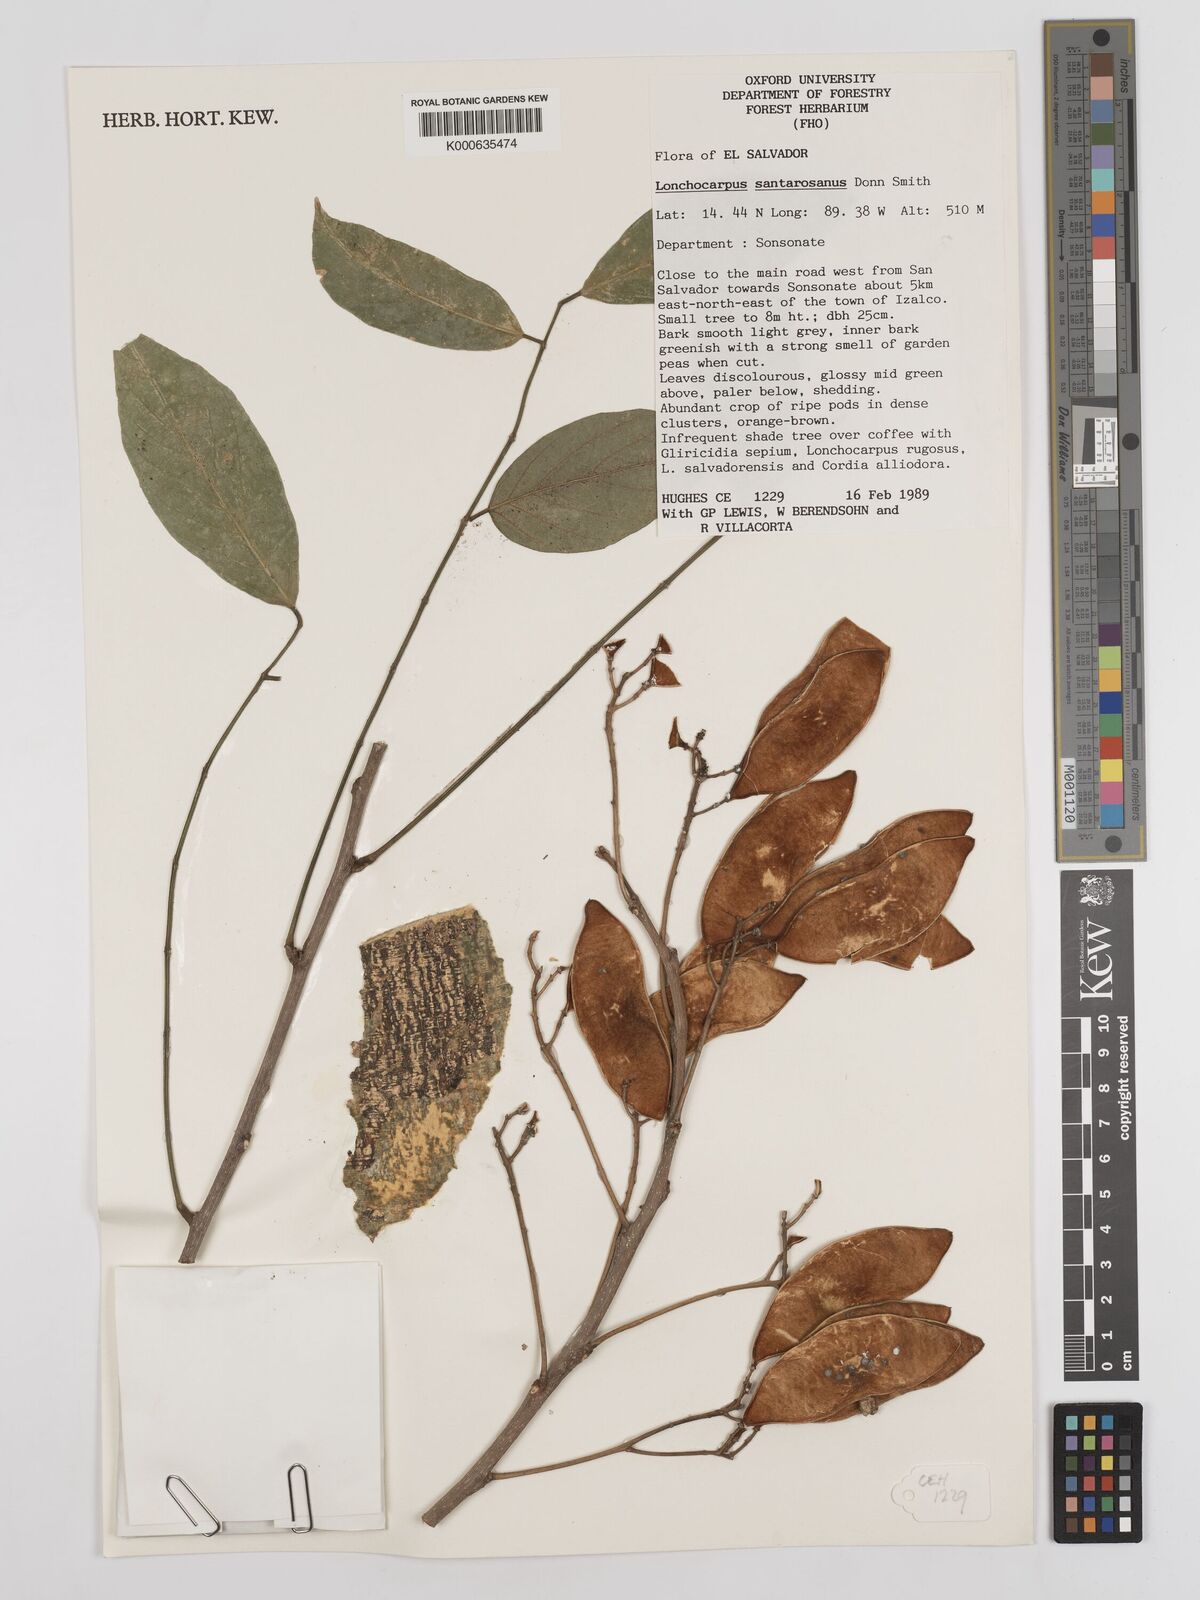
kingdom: Plantae
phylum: Tracheophyta
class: Magnoliopsida
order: Fabales
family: Fabaceae
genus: Lonchocarpus
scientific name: Lonchocarpus santarosanus
